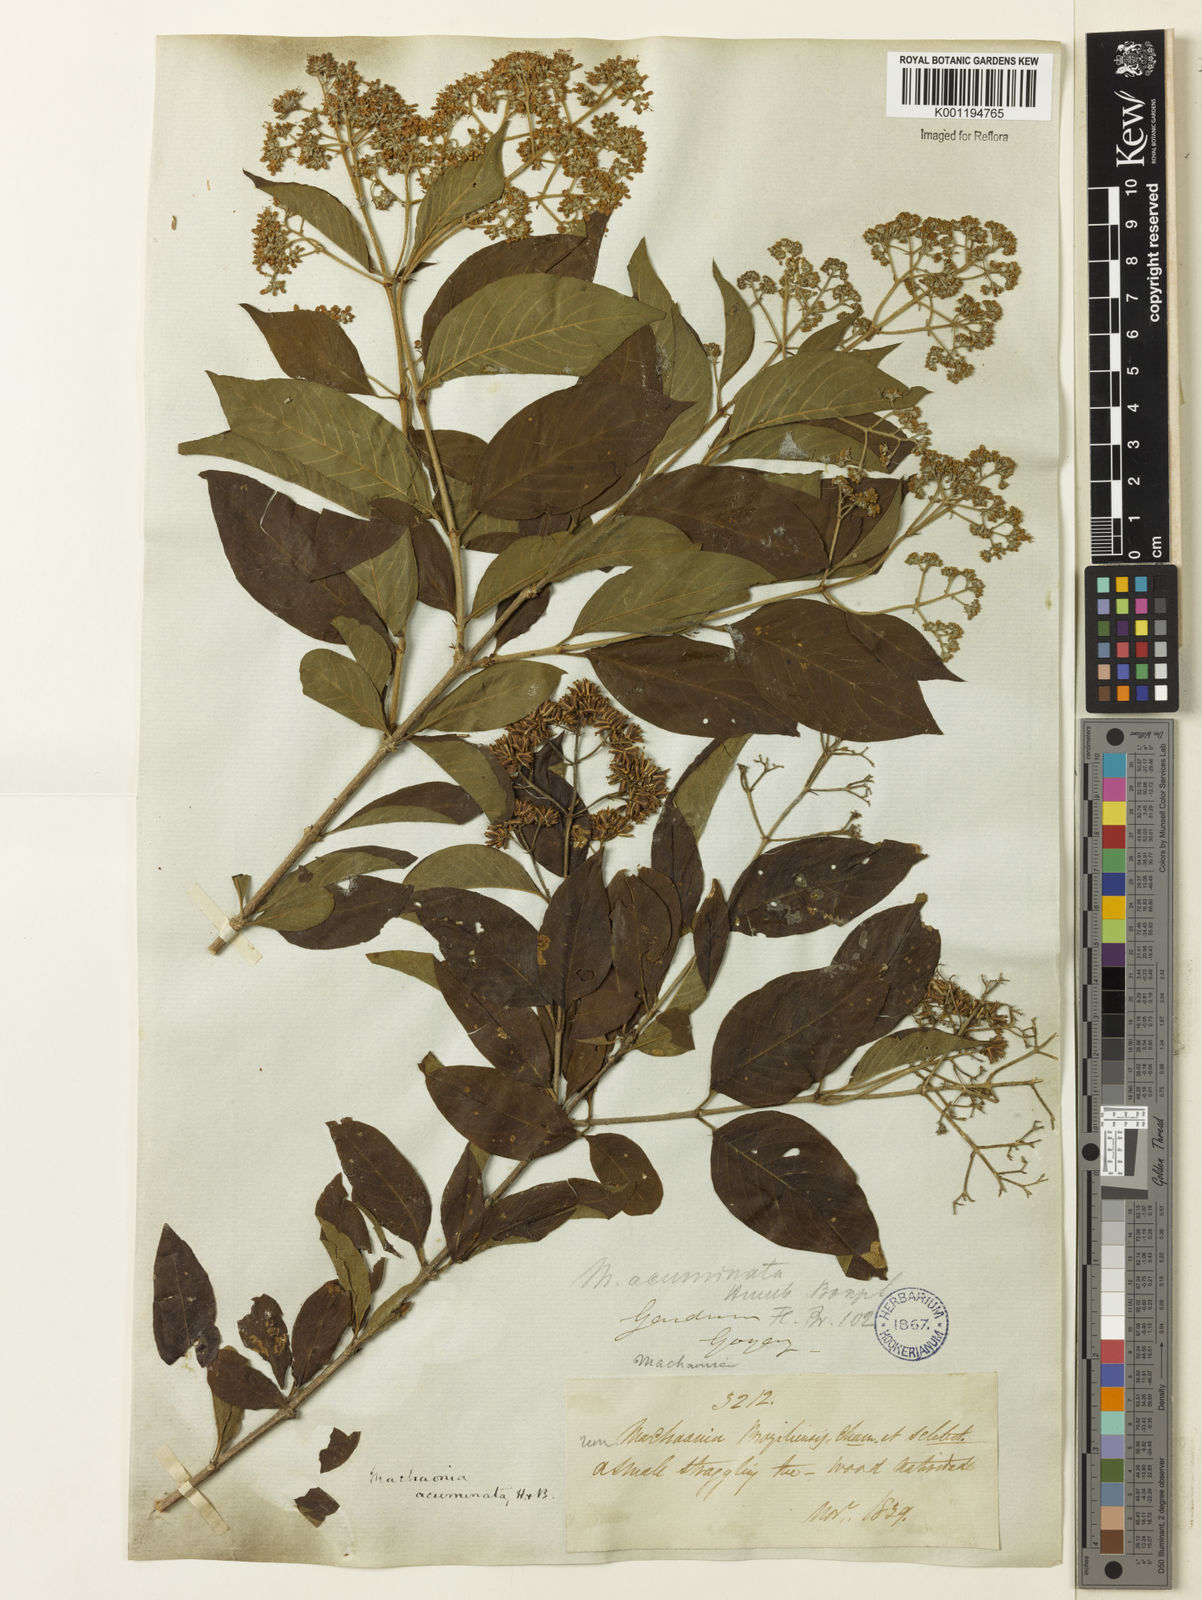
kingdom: Plantae
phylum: Tracheophyta
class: Magnoliopsida
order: Gentianales
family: Rubiaceae
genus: Machaonia
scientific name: Machaonia acuminata
